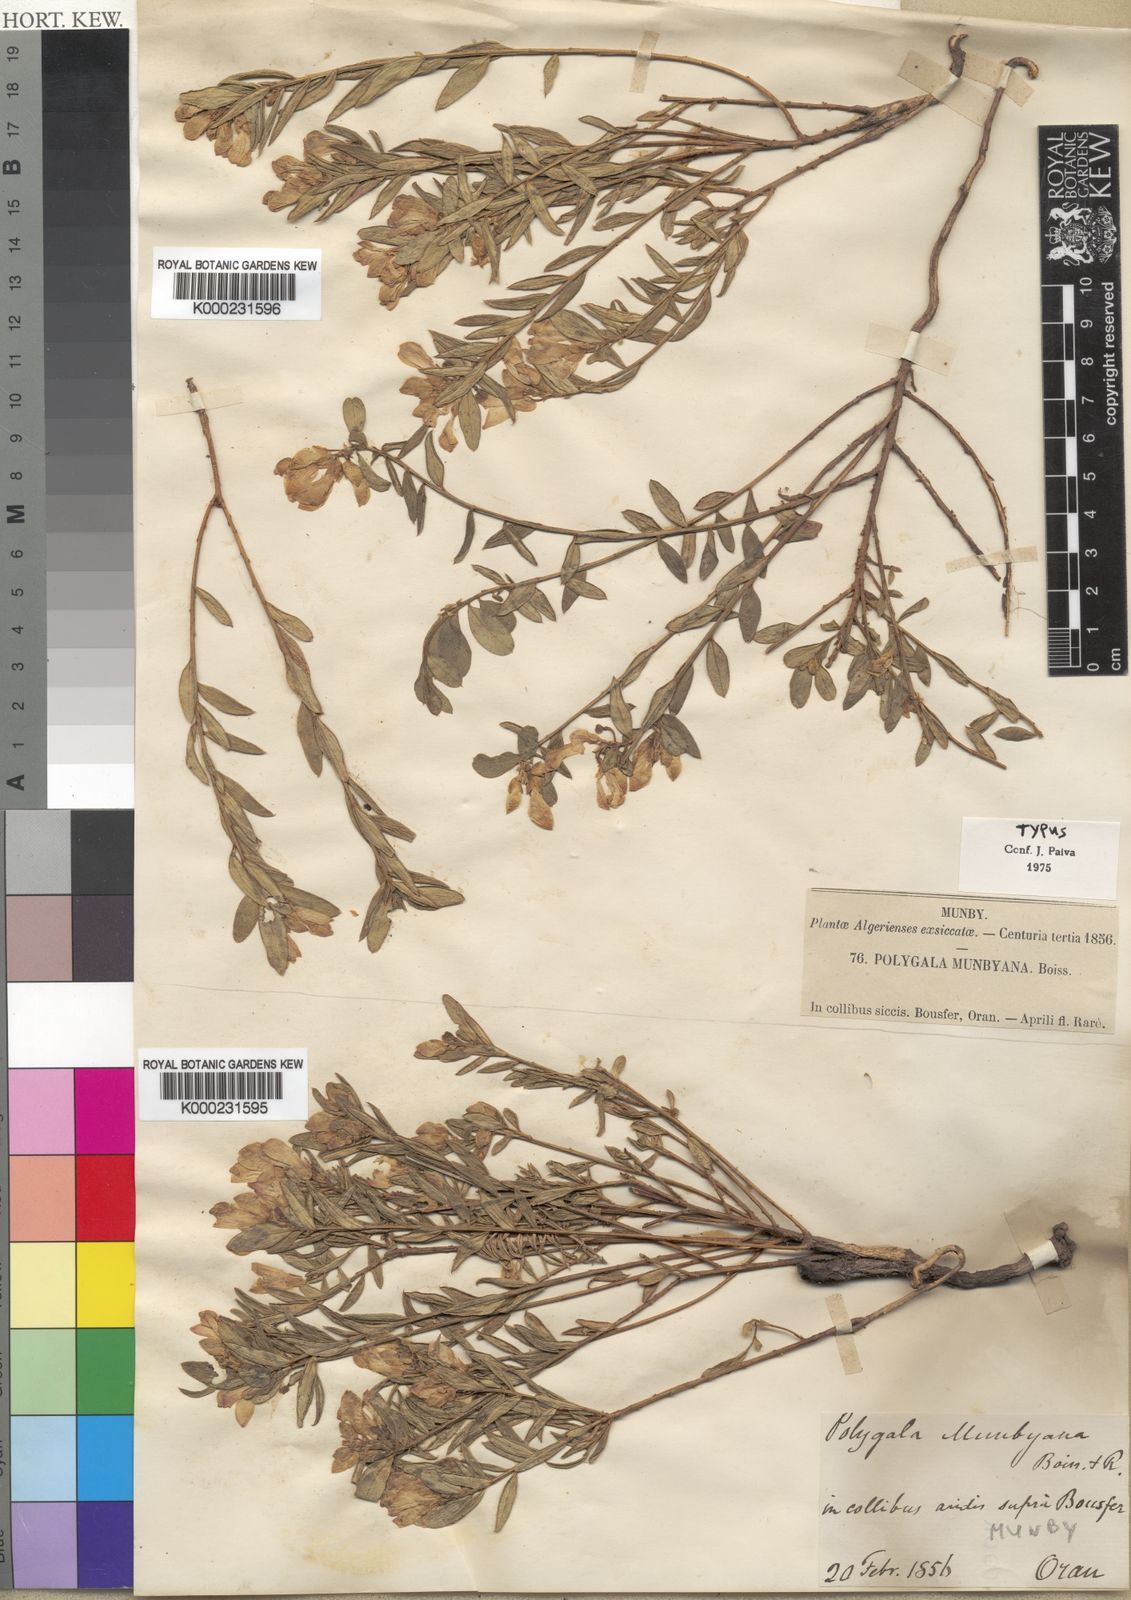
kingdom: Plantae
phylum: Tracheophyta
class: Magnoliopsida
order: Fabales
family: Polygalaceae
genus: Polygaloides
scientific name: Polygaloides munbyana
